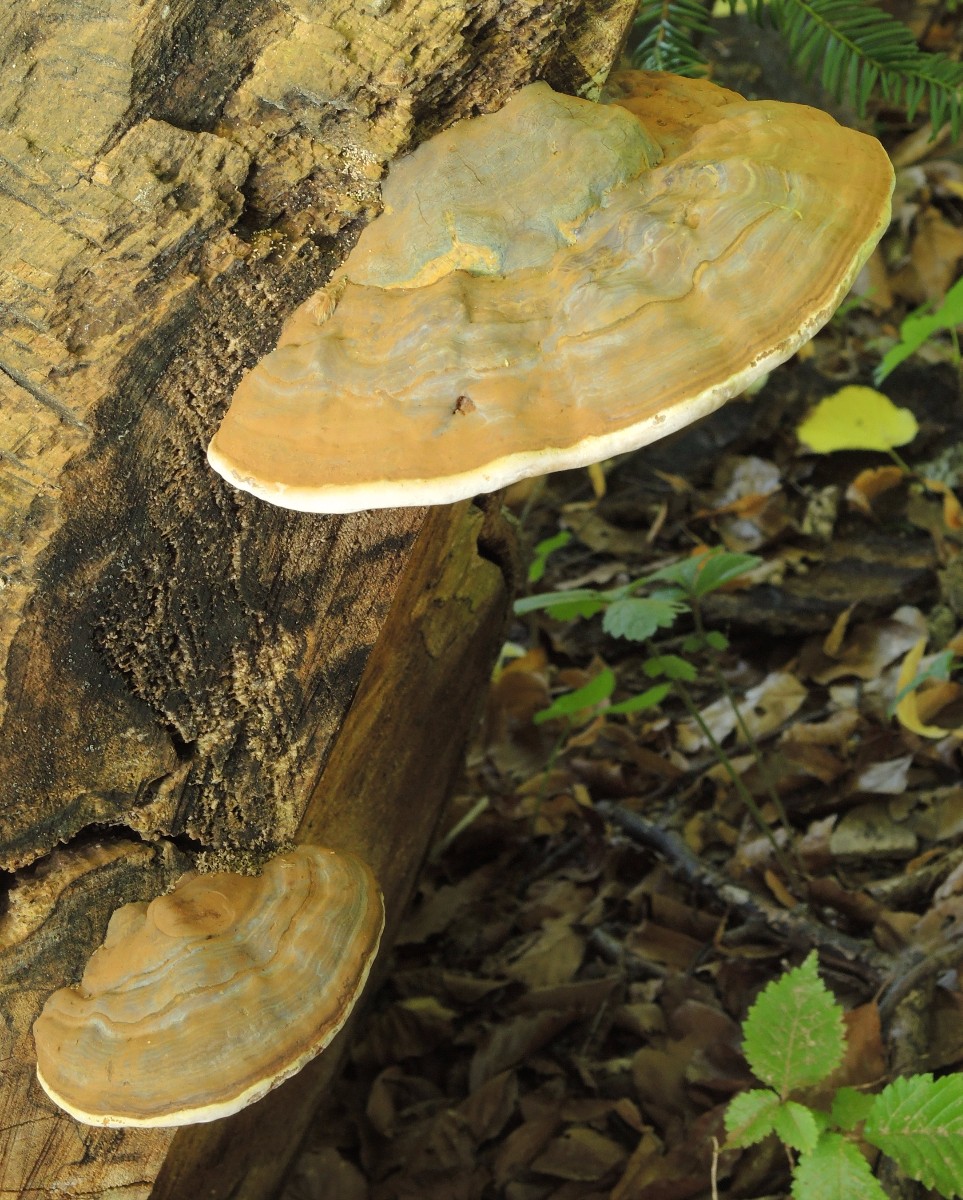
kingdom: Fungi
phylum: Basidiomycota
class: Agaricomycetes
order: Polyporales
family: Polyporaceae
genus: Ganoderma
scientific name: Ganoderma pfeifferi
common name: kobberrød lakporesvamp
